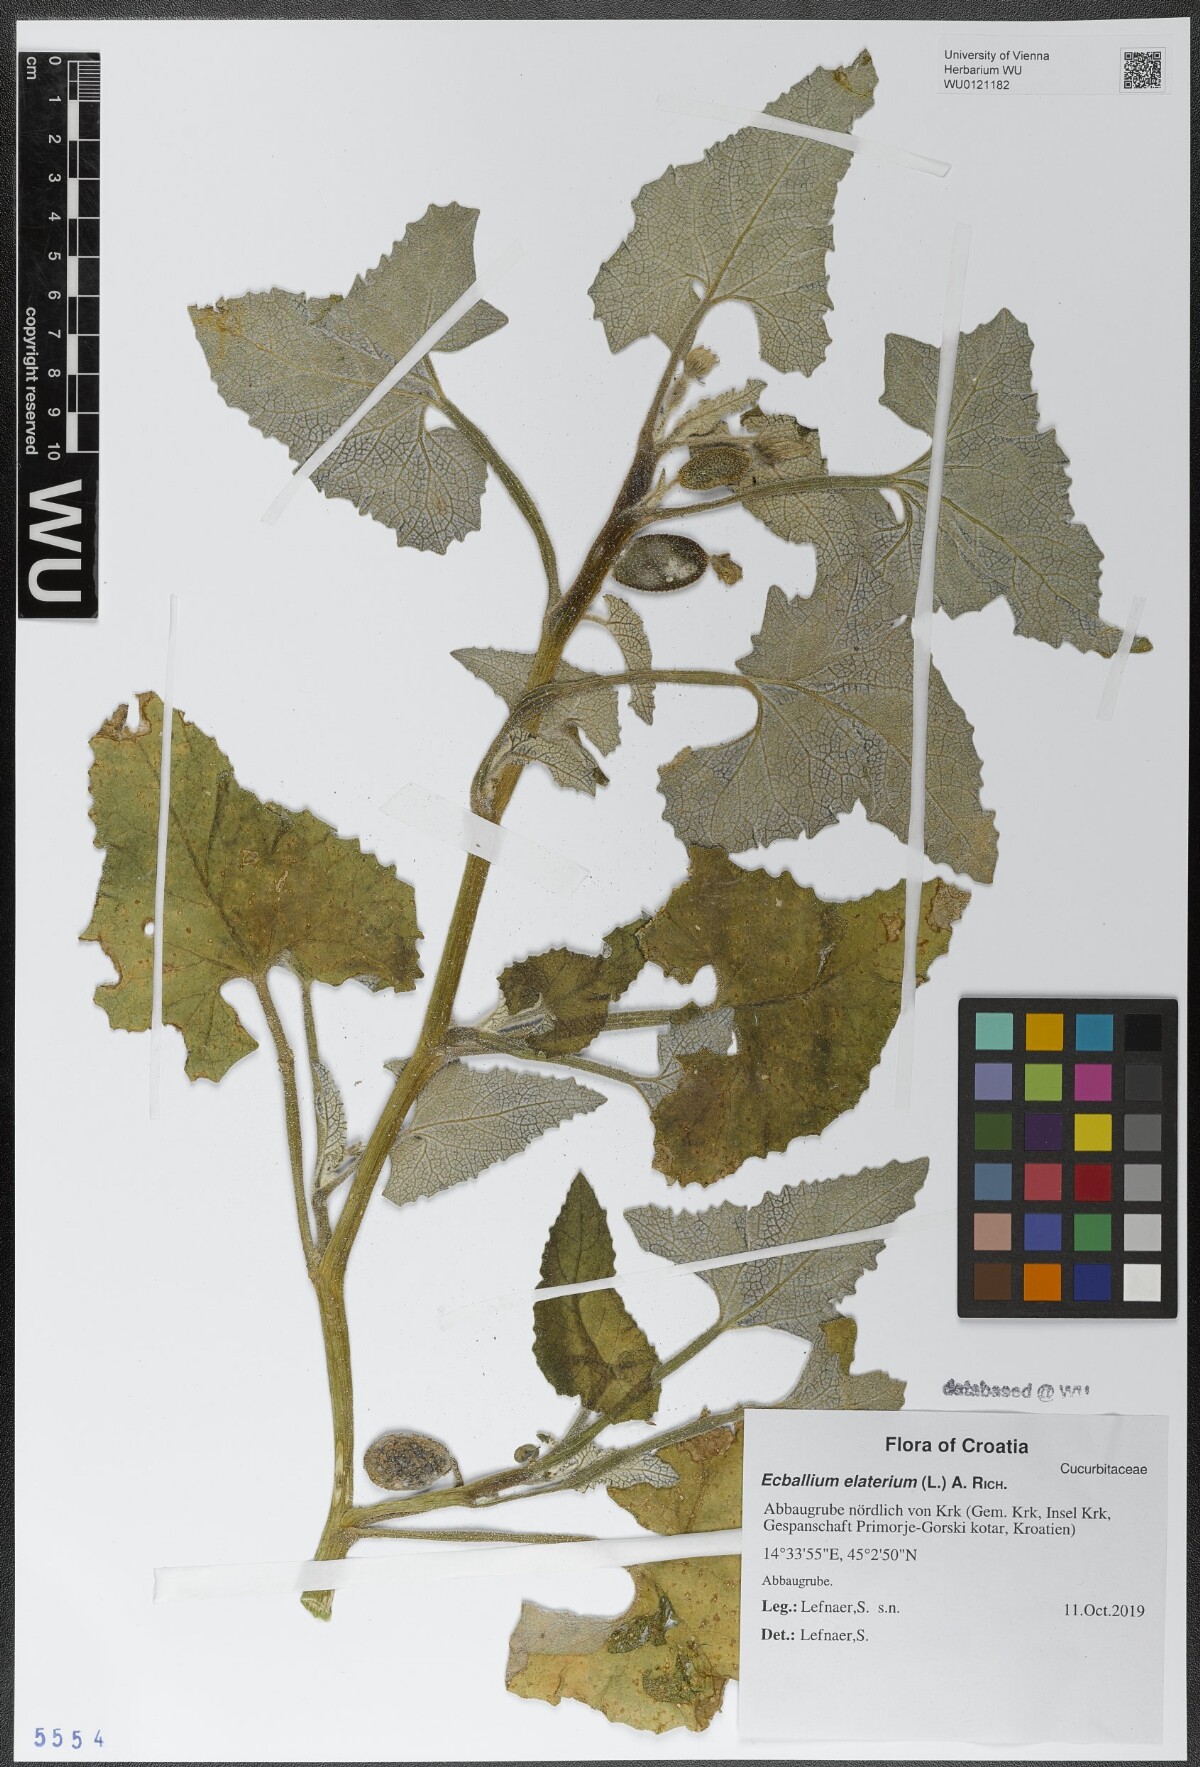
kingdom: Plantae
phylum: Tracheophyta
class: Magnoliopsida
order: Cucurbitales
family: Cucurbitaceae
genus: Ecballium
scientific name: Ecballium elaterium
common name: Squirting cucumber
